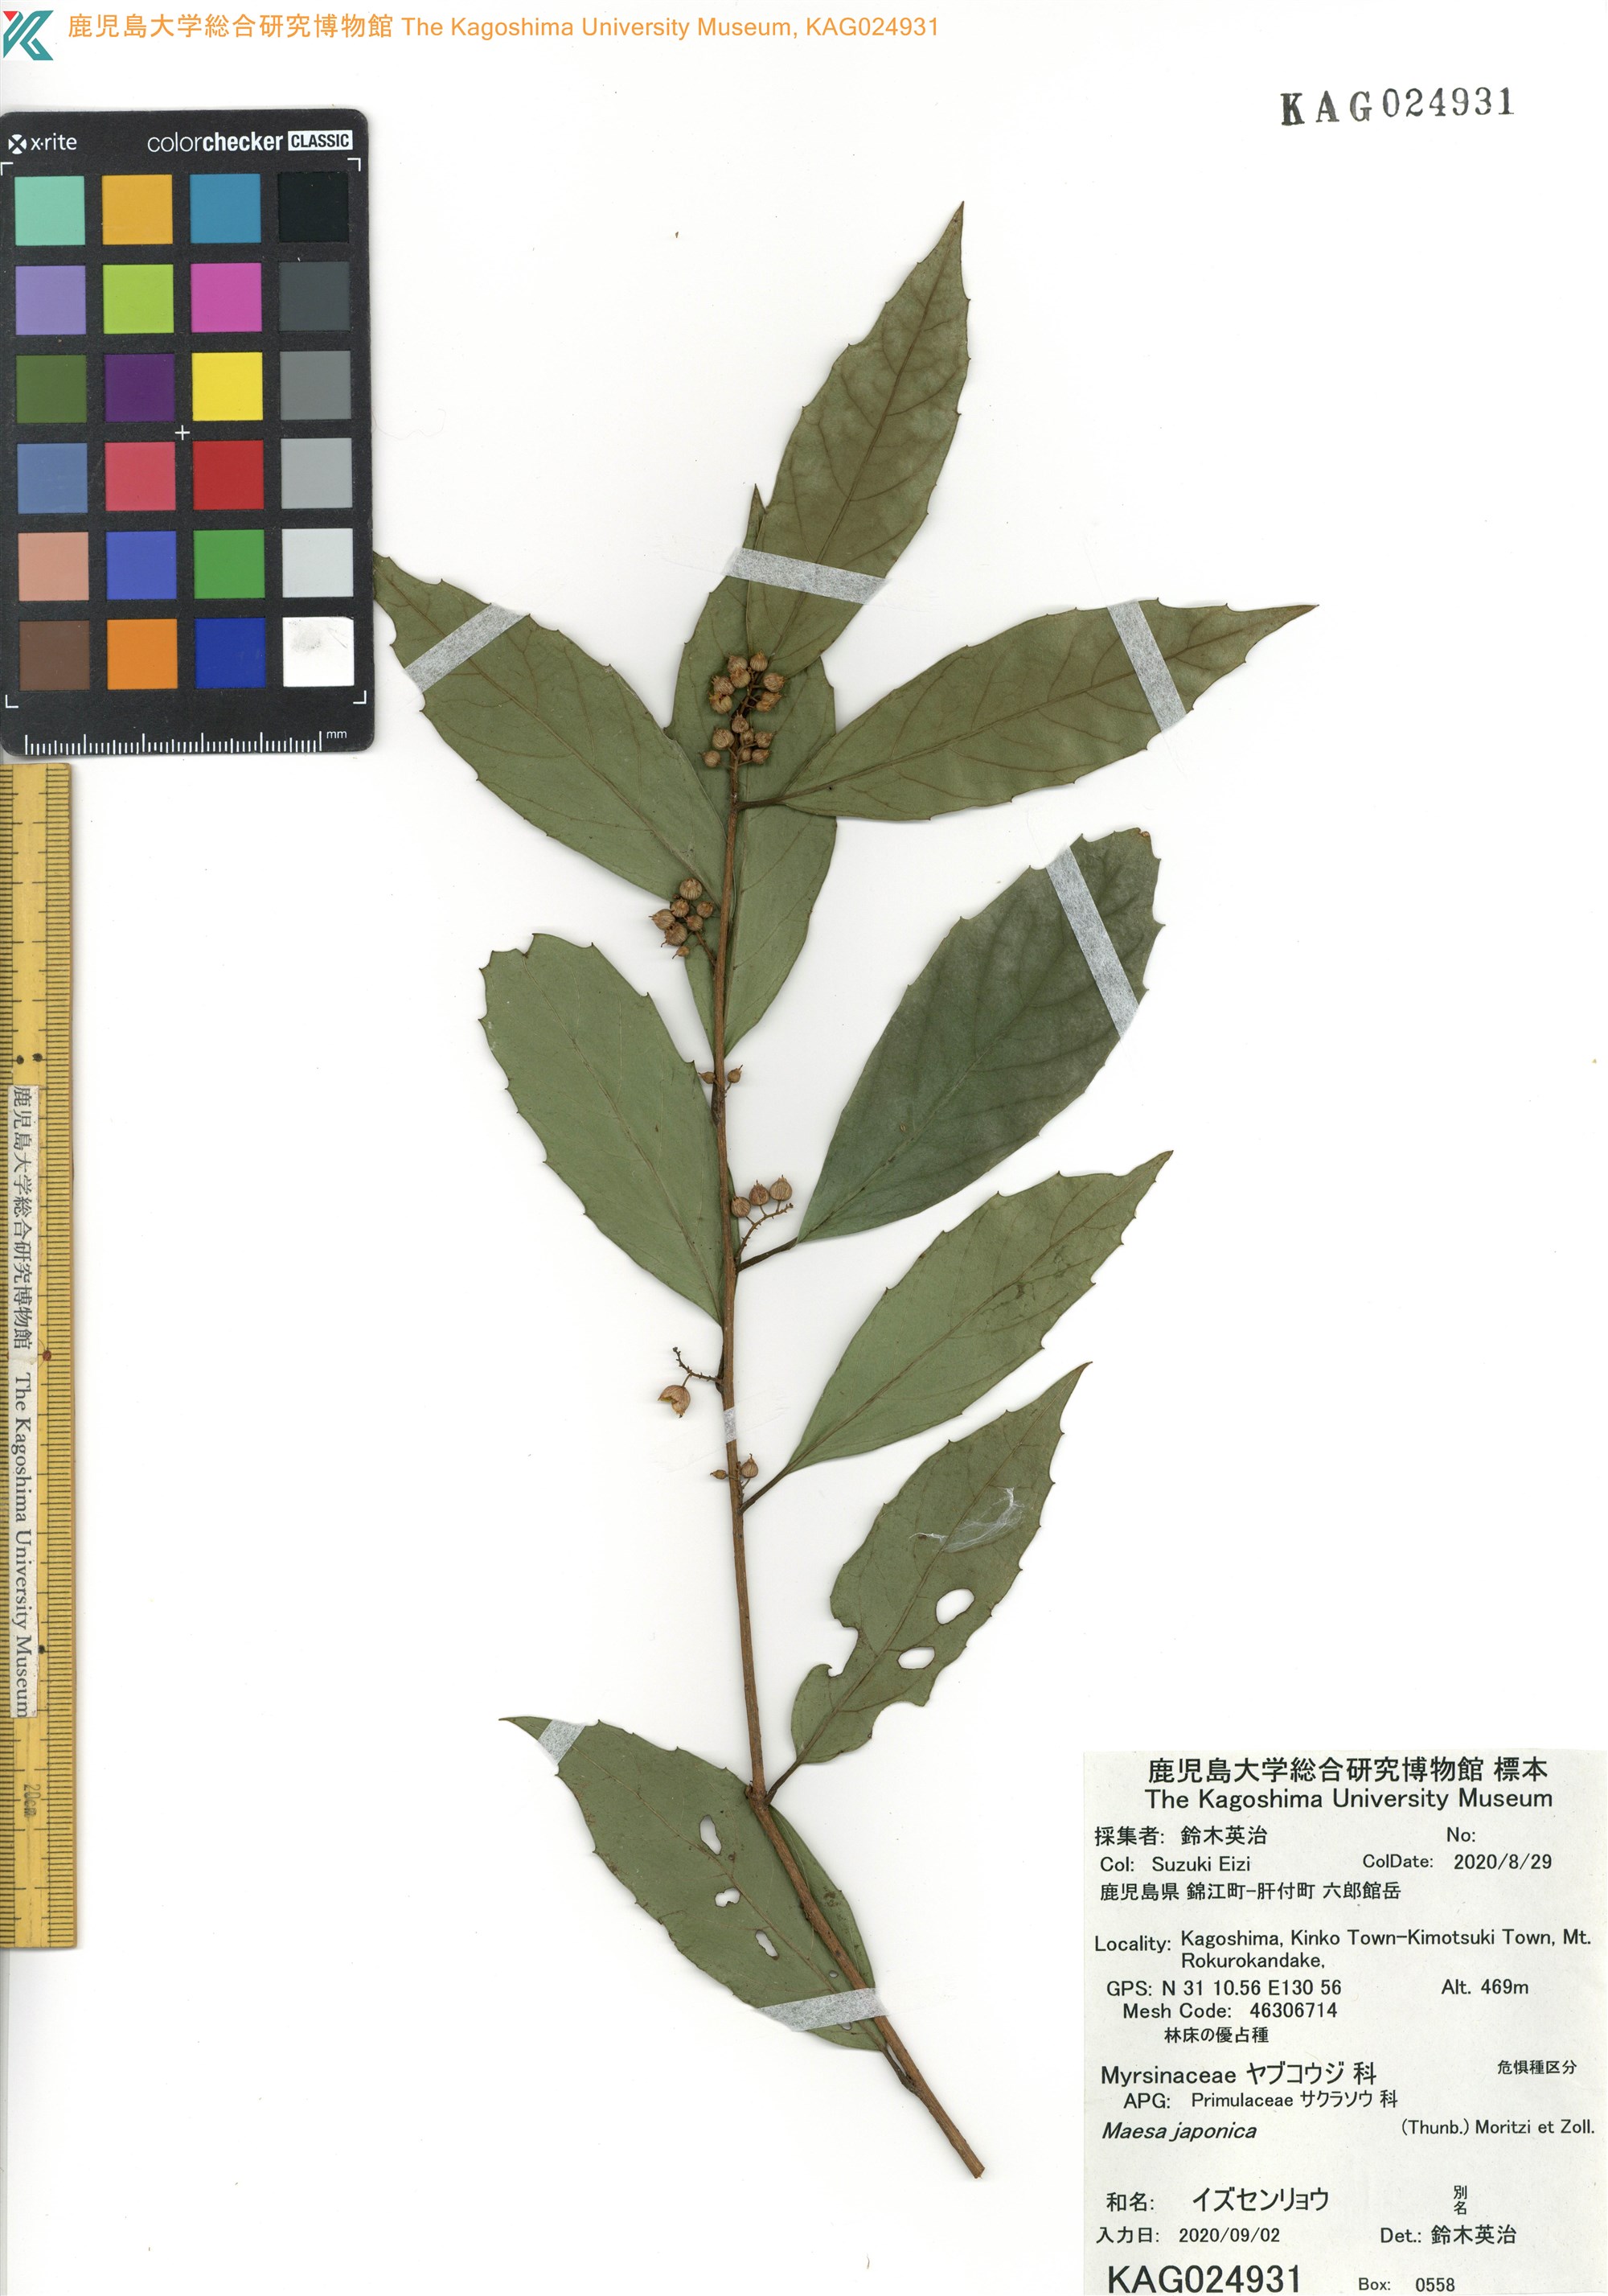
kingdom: Plantae
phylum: Tracheophyta
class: Magnoliopsida
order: Ericales
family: Primulaceae
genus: Maesa
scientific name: Maesa japonica
